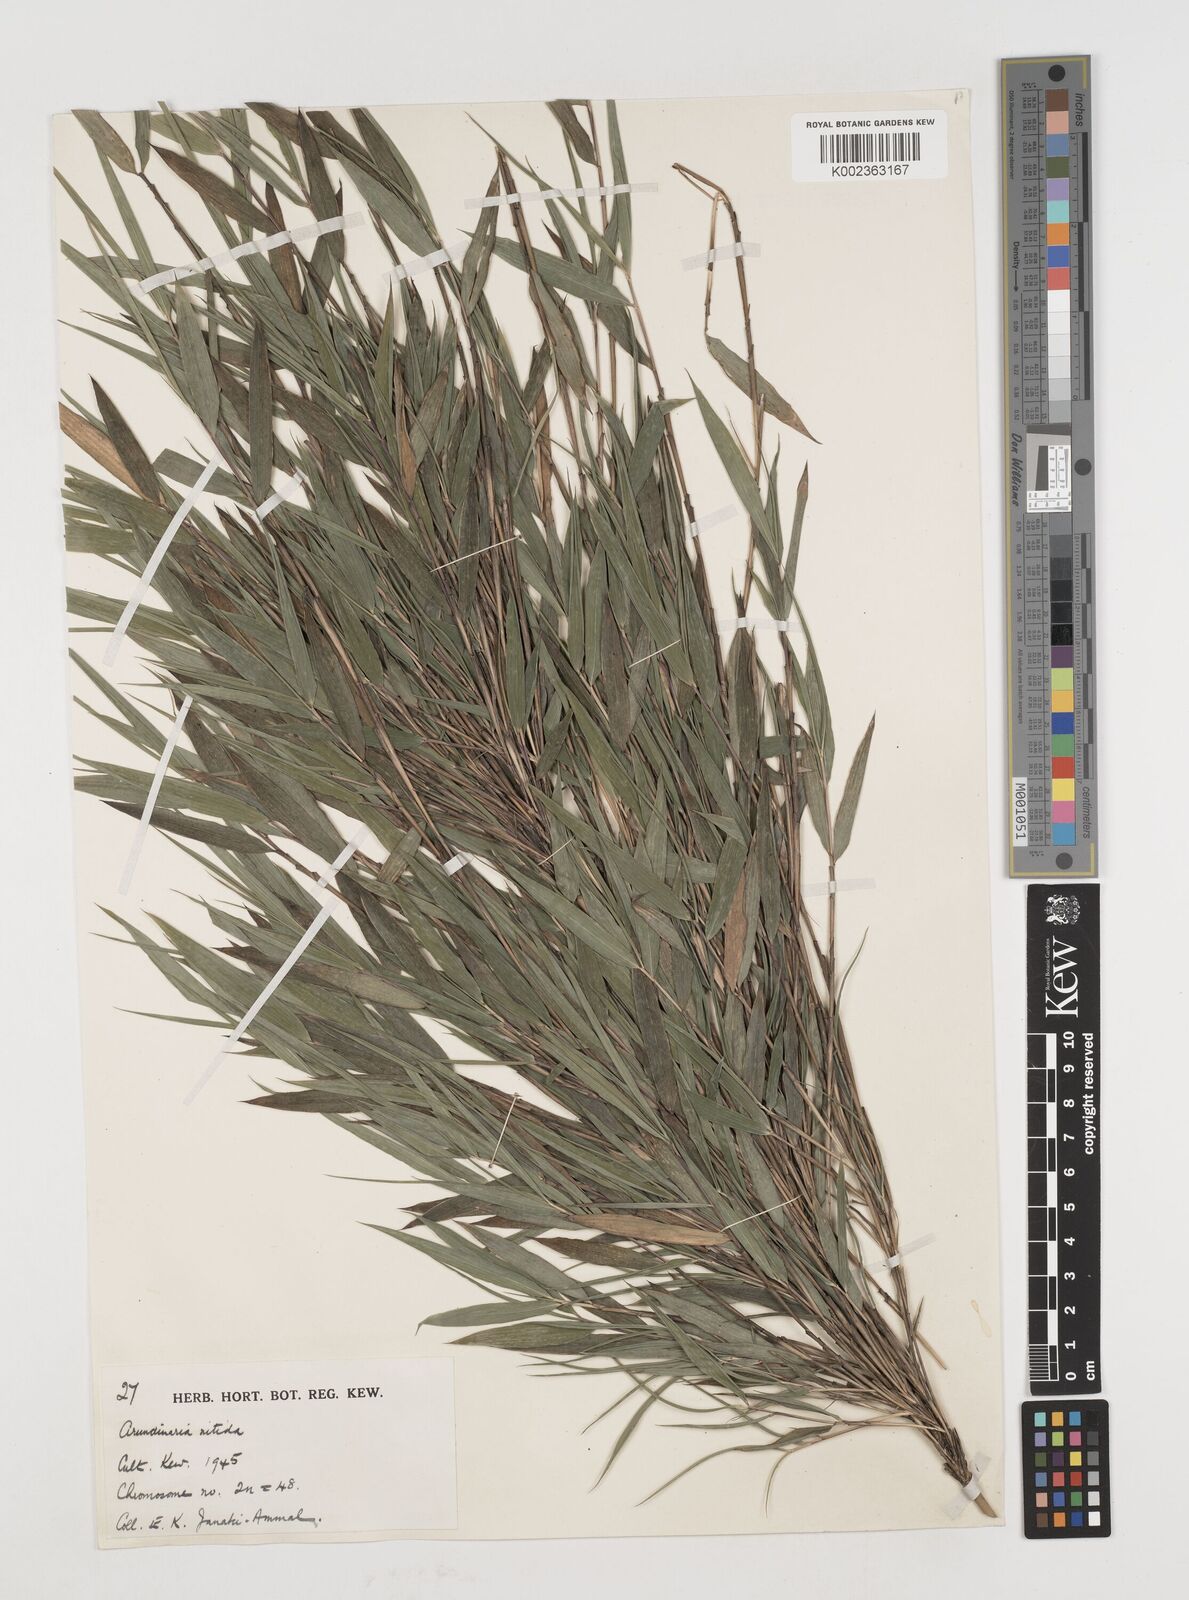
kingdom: Plantae
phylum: Tracheophyta
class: Liliopsida
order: Poales
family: Poaceae
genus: Fargesia
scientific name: Fargesia nitida ex
